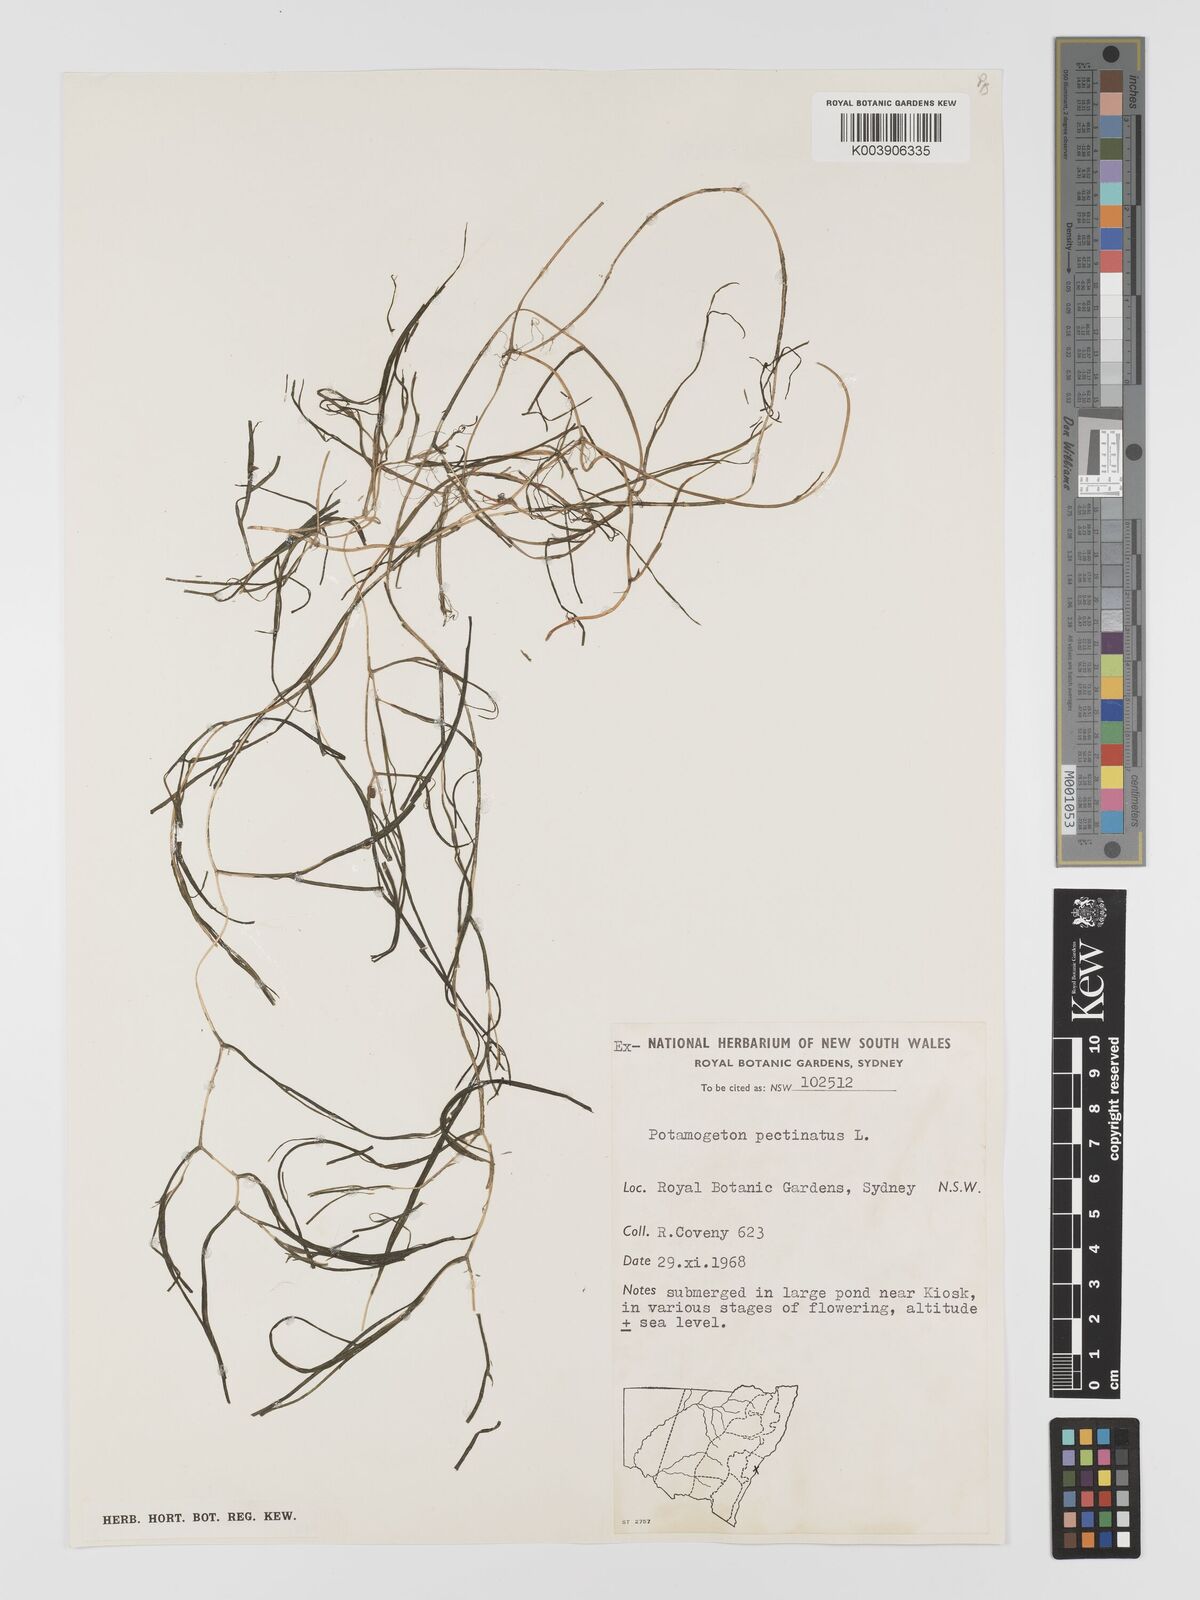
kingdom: Plantae
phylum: Tracheophyta
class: Liliopsida
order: Alismatales
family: Potamogetonaceae
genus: Stuckenia
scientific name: Stuckenia pectinata
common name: Sago pondweed
